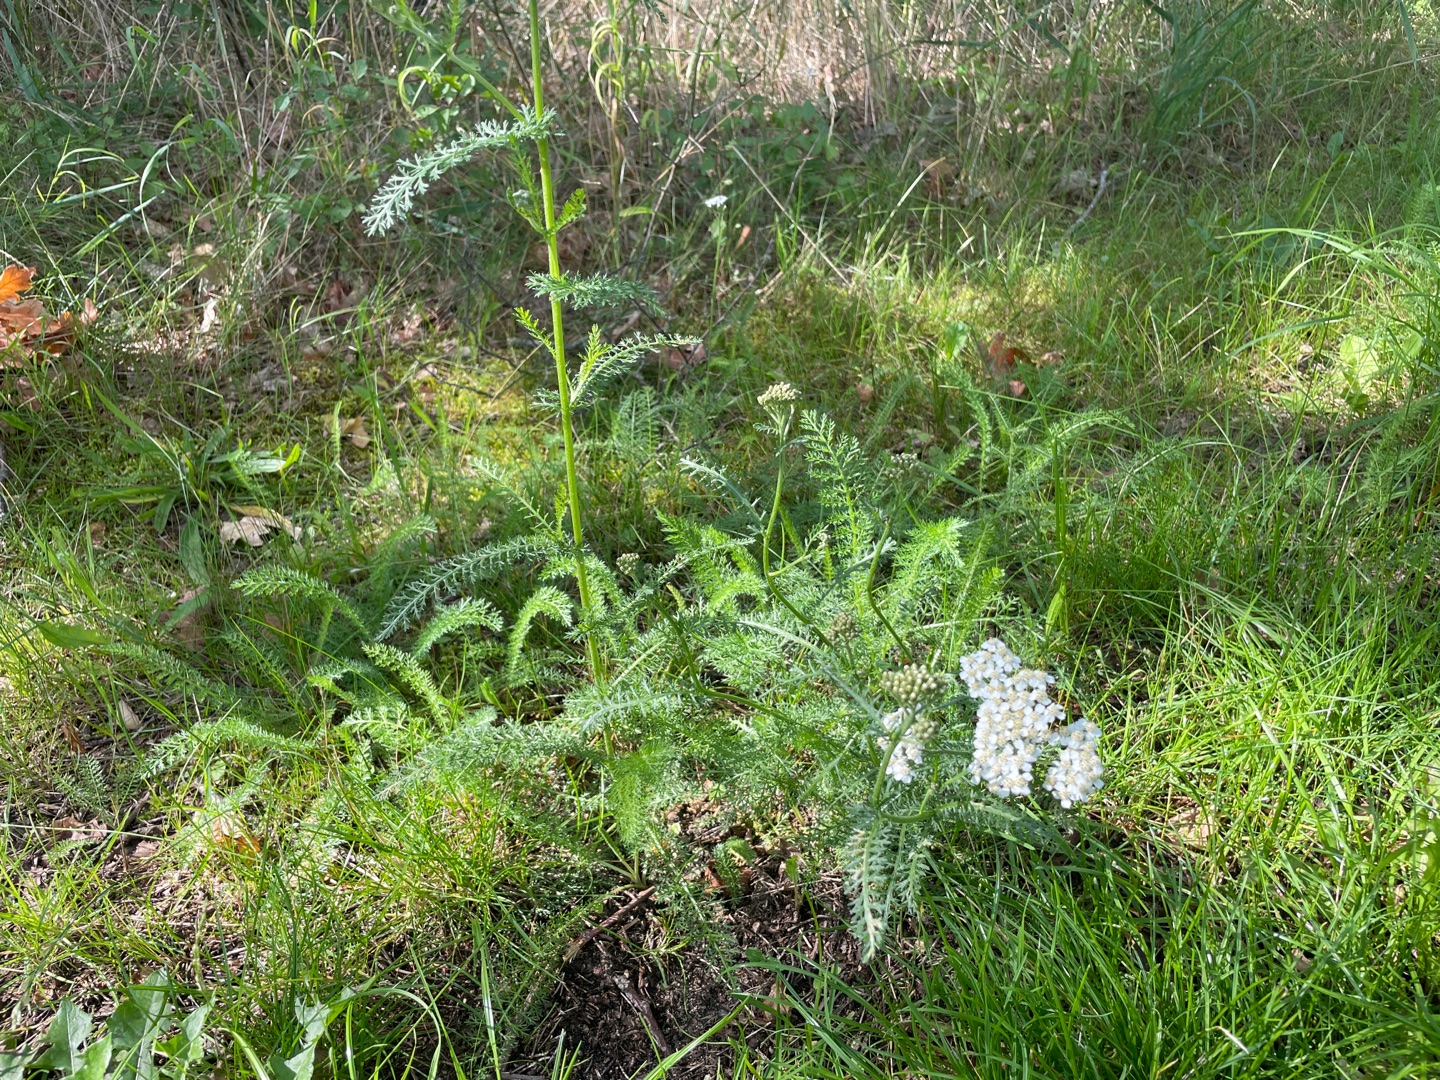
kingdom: Plantae
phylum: Tracheophyta
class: Magnoliopsida
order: Asterales
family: Asteraceae
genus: Achillea
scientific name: Achillea millefolium
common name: Almindelig røllike
